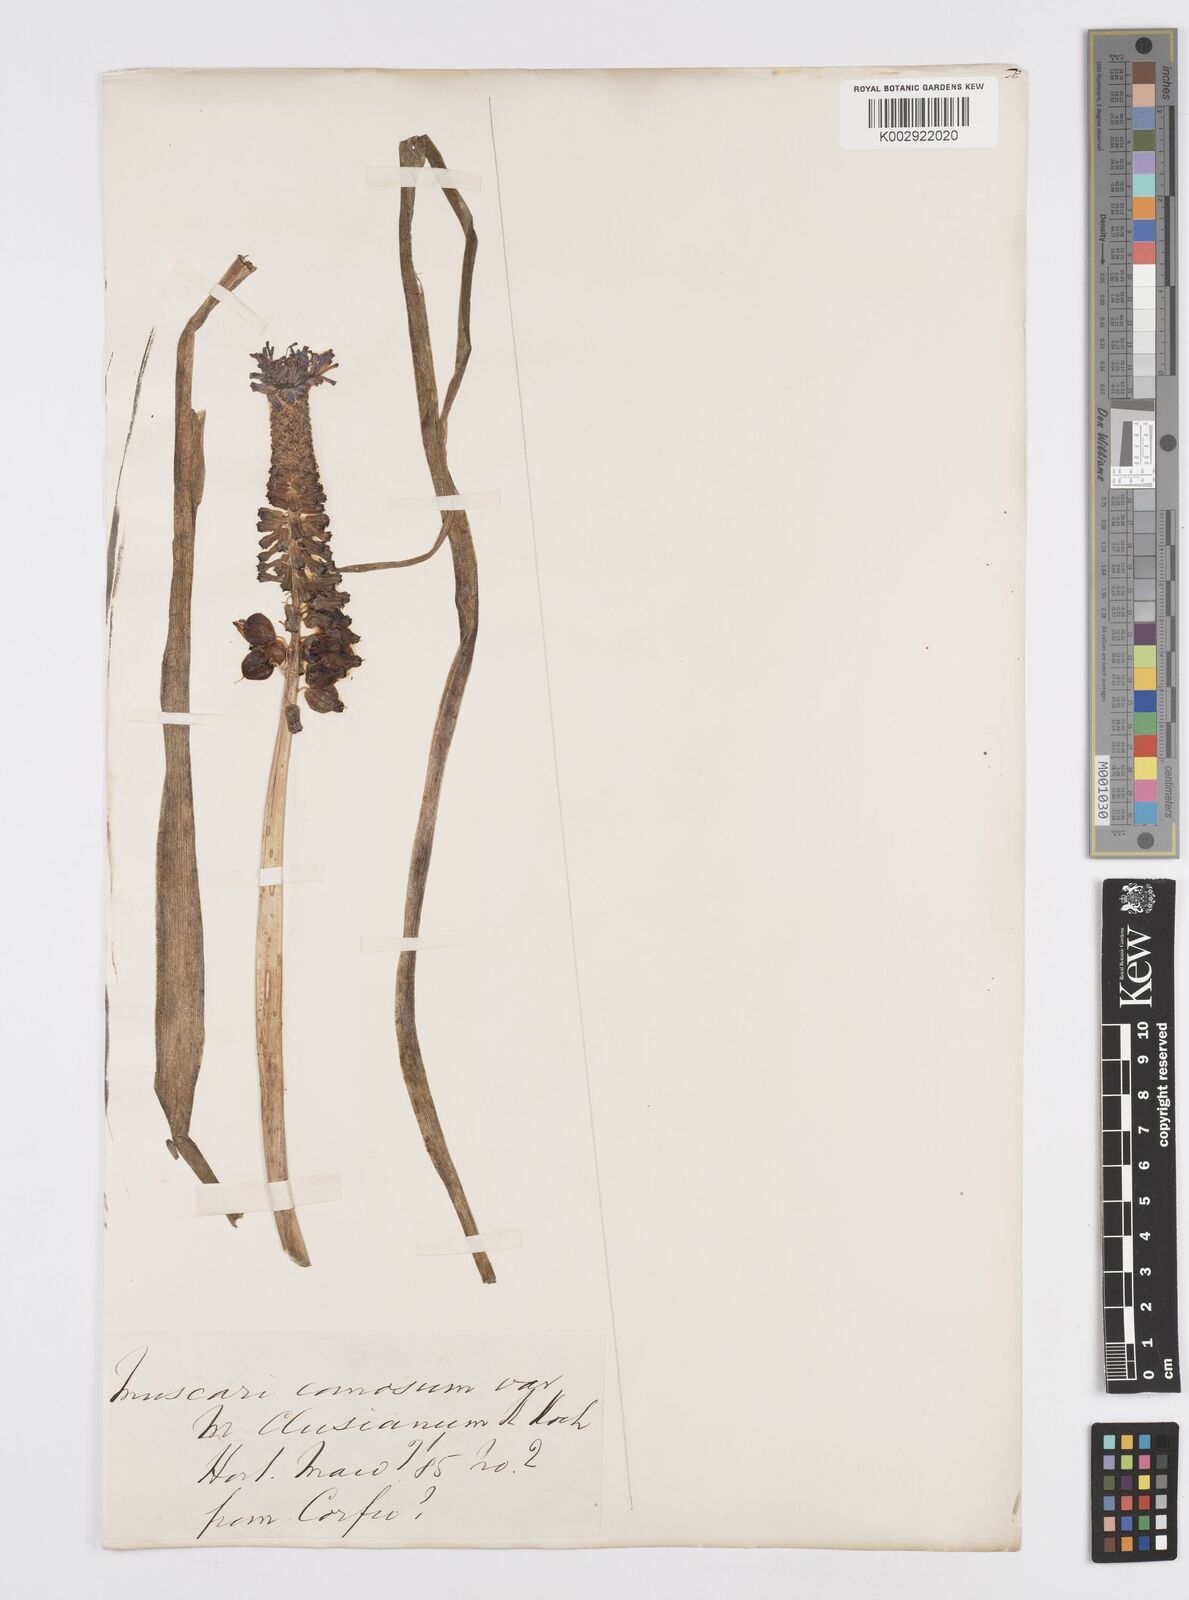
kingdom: Plantae
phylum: Tracheophyta
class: Liliopsida
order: Asparagales
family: Asparagaceae
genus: Muscari
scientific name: Muscari tenuiflorum
